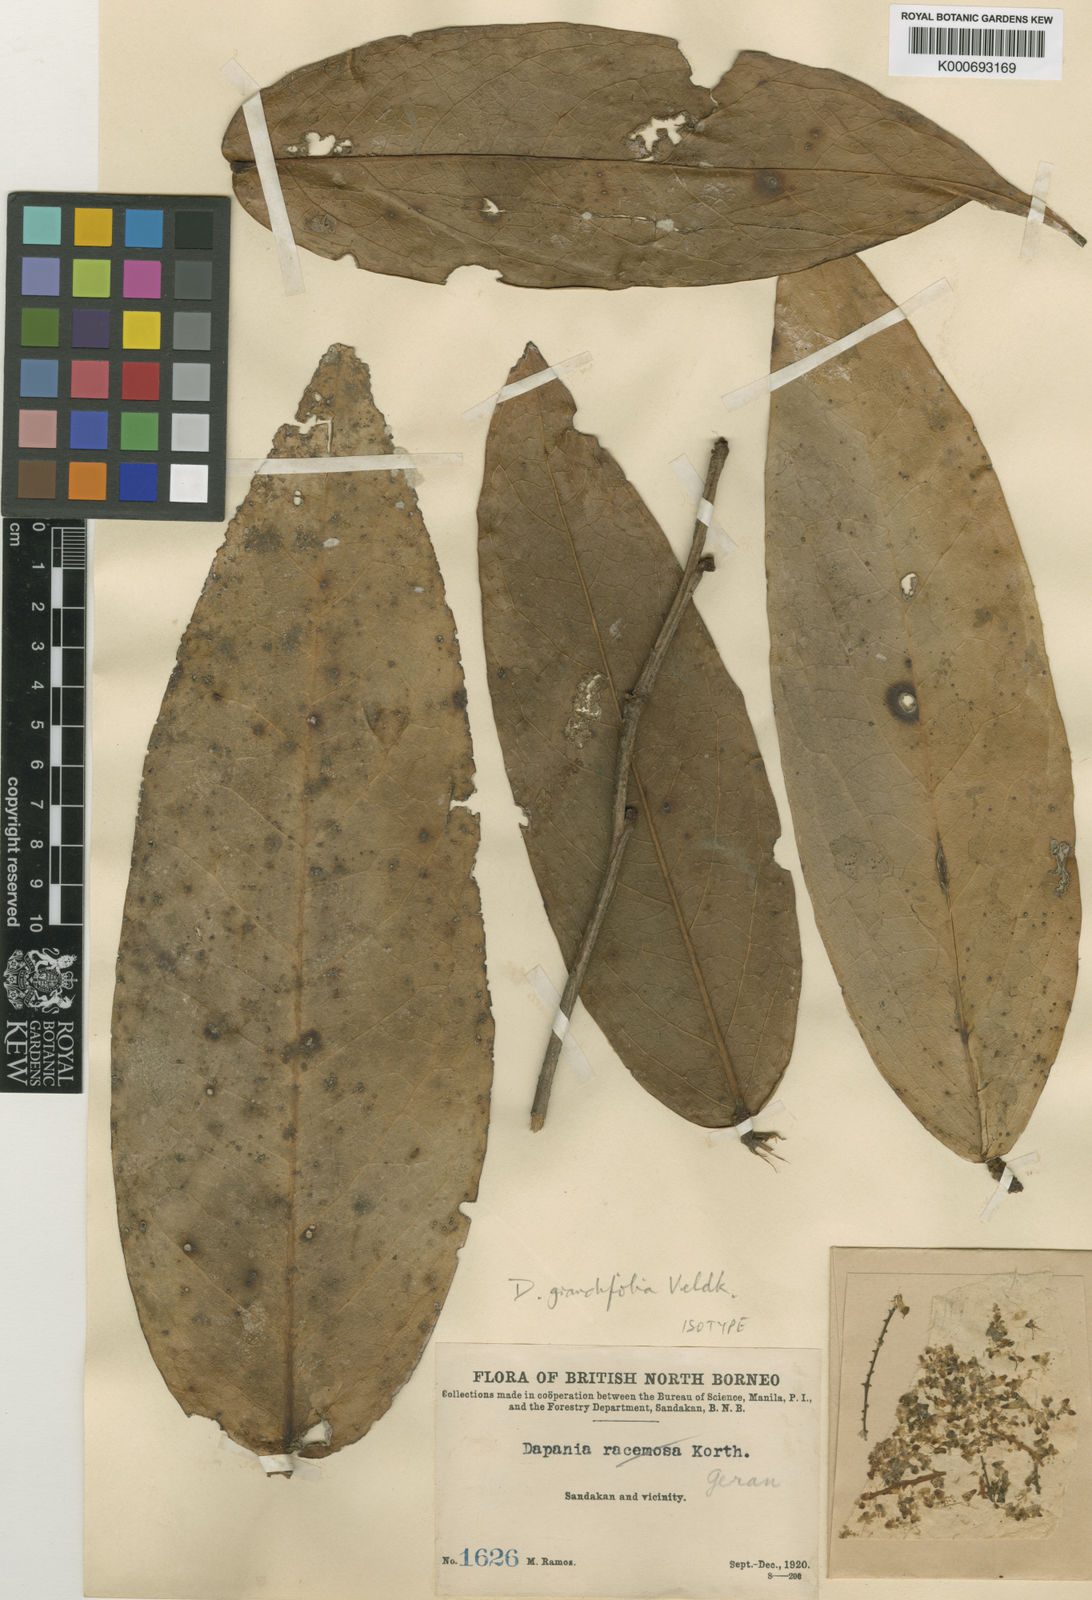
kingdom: Plantae
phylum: Tracheophyta
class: Magnoliopsida
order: Oxalidales
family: Oxalidaceae
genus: Dapania
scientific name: Dapania grandifolia
